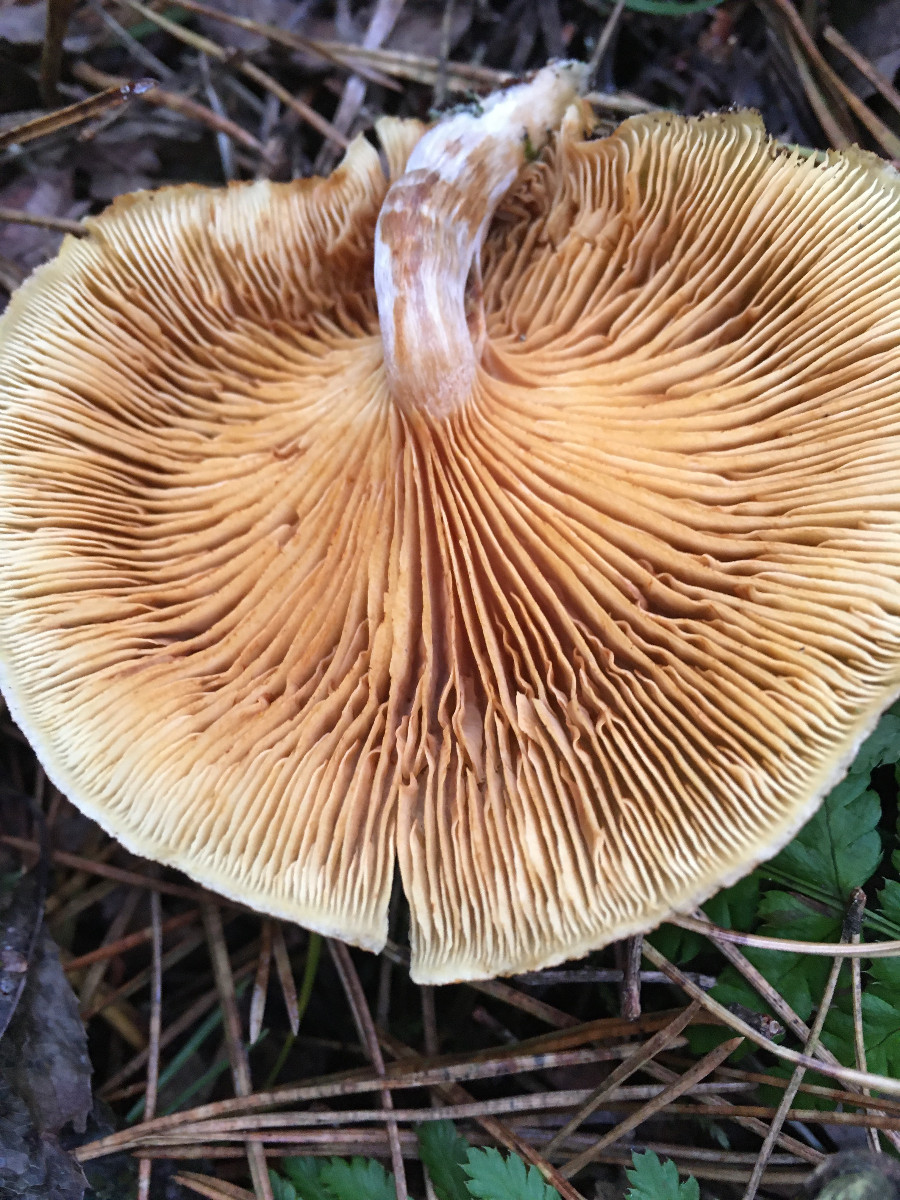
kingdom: Fungi
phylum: Basidiomycota
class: Agaricomycetes
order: Agaricales
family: Hymenogastraceae
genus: Gymnopilus
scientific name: Gymnopilus penetrans
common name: plettet flammehat
